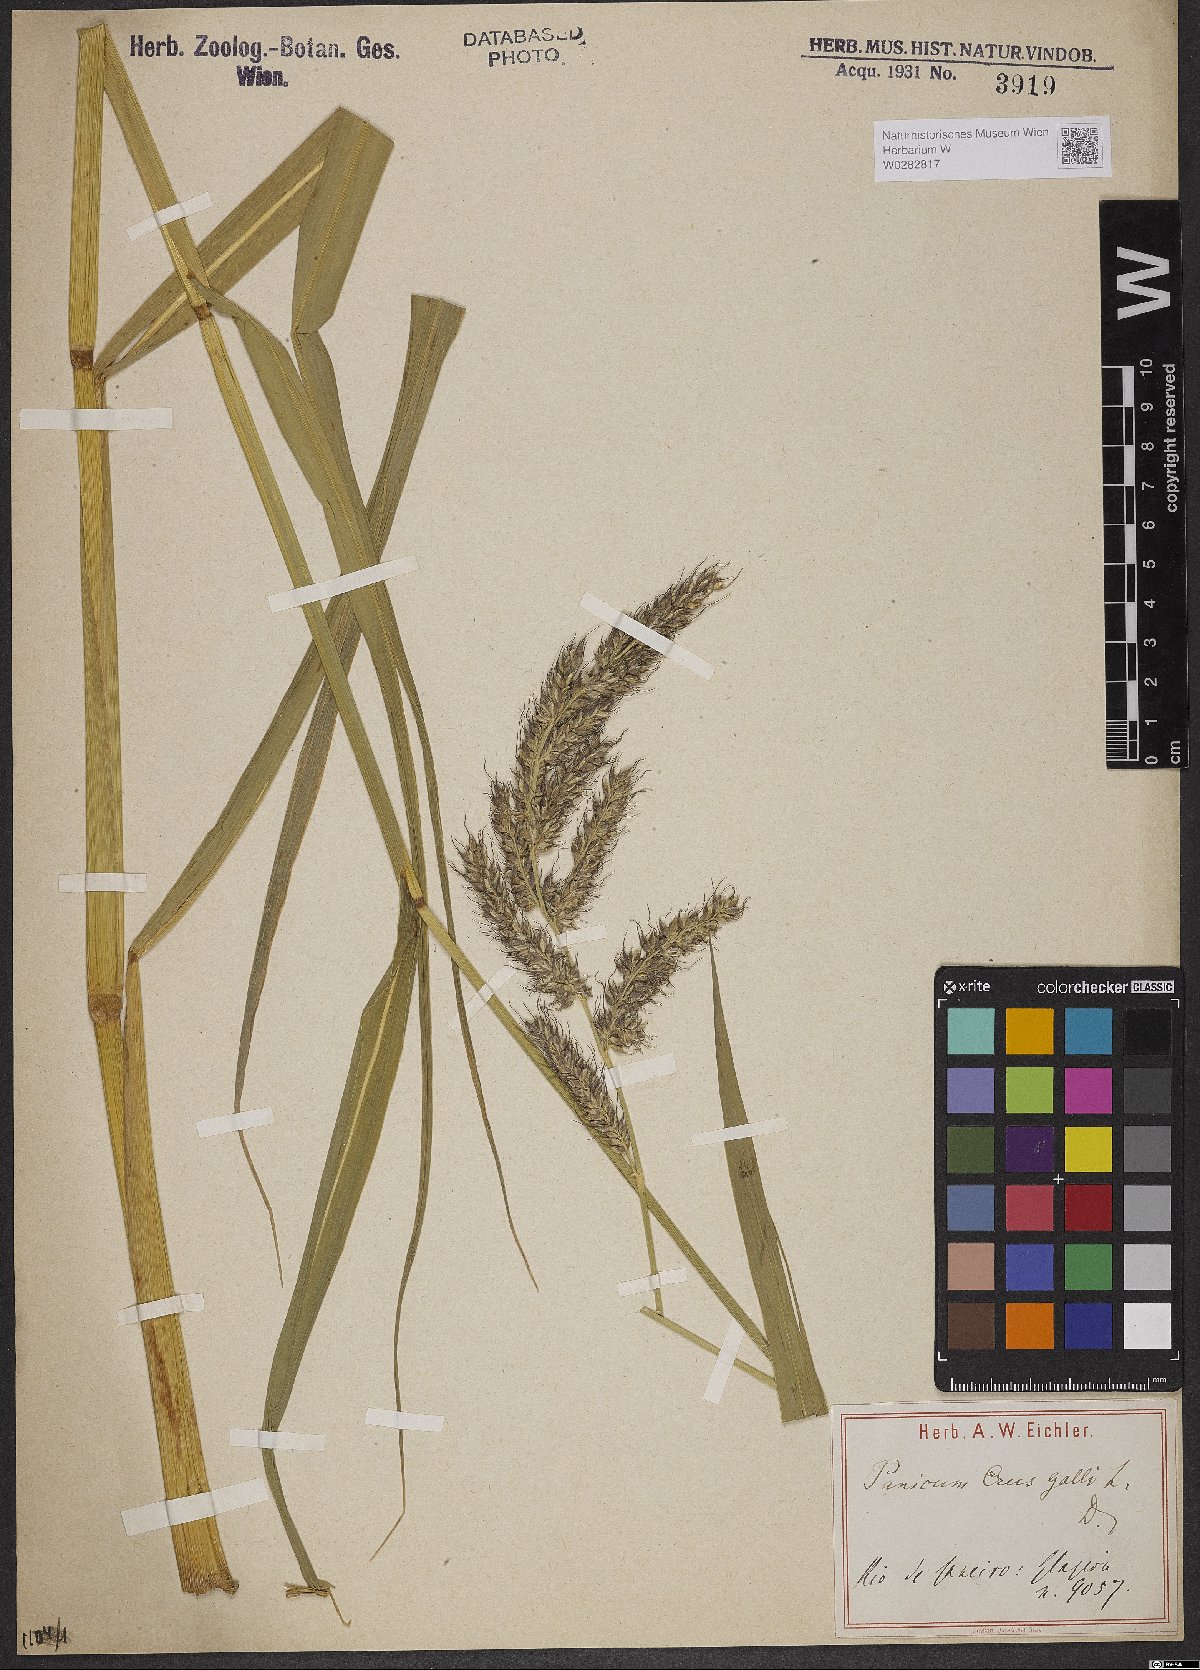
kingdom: Plantae
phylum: Tracheophyta
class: Liliopsida
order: Poales
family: Poaceae
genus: Echinochloa
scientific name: Echinochloa crus-galli
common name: Cockspur
